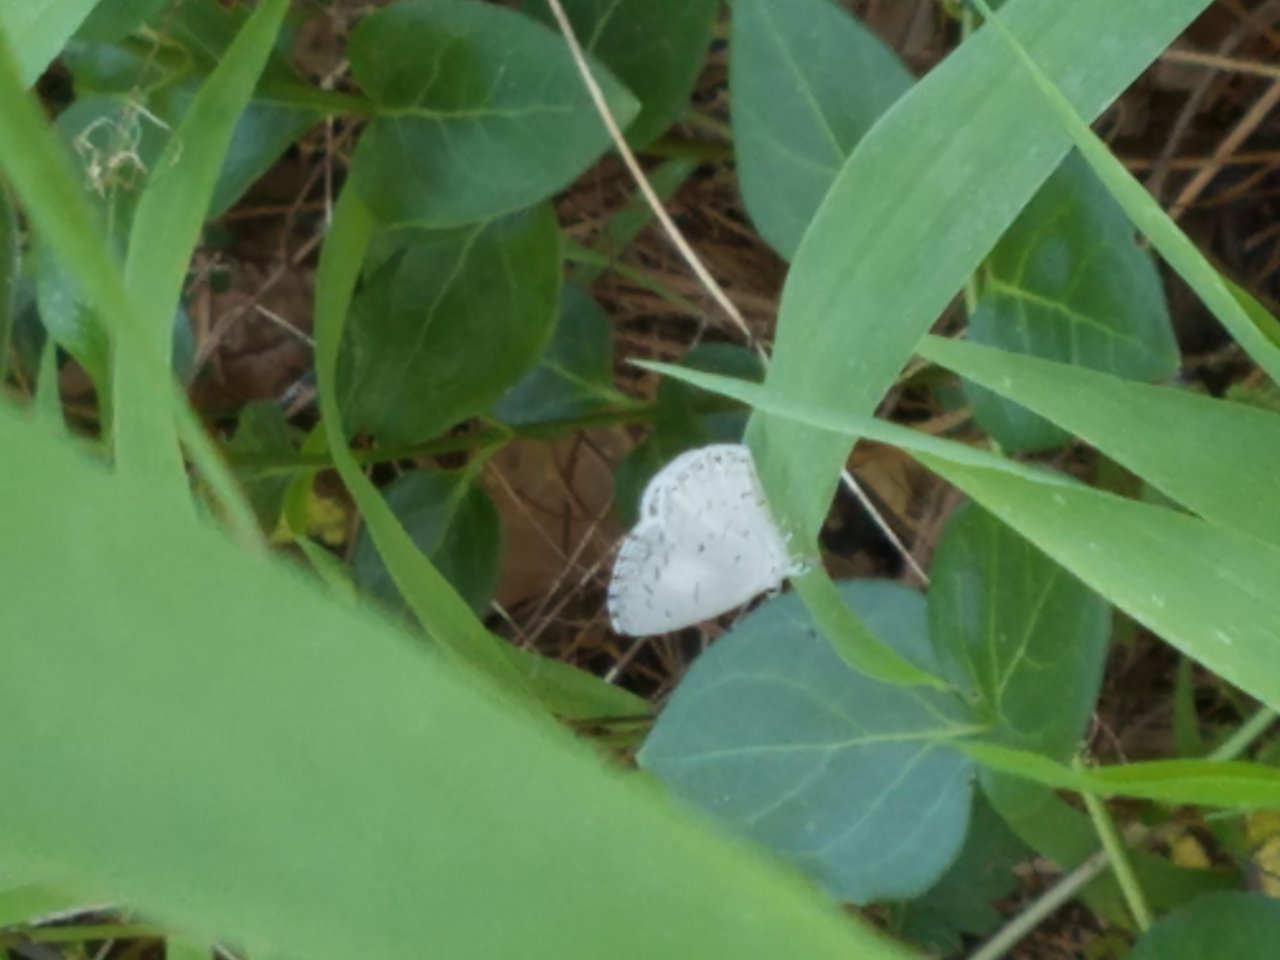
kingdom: Animalia
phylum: Arthropoda
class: Insecta
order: Lepidoptera
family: Lycaenidae
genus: Cyaniris
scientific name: Cyaniris neglecta
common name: Summer Azure
